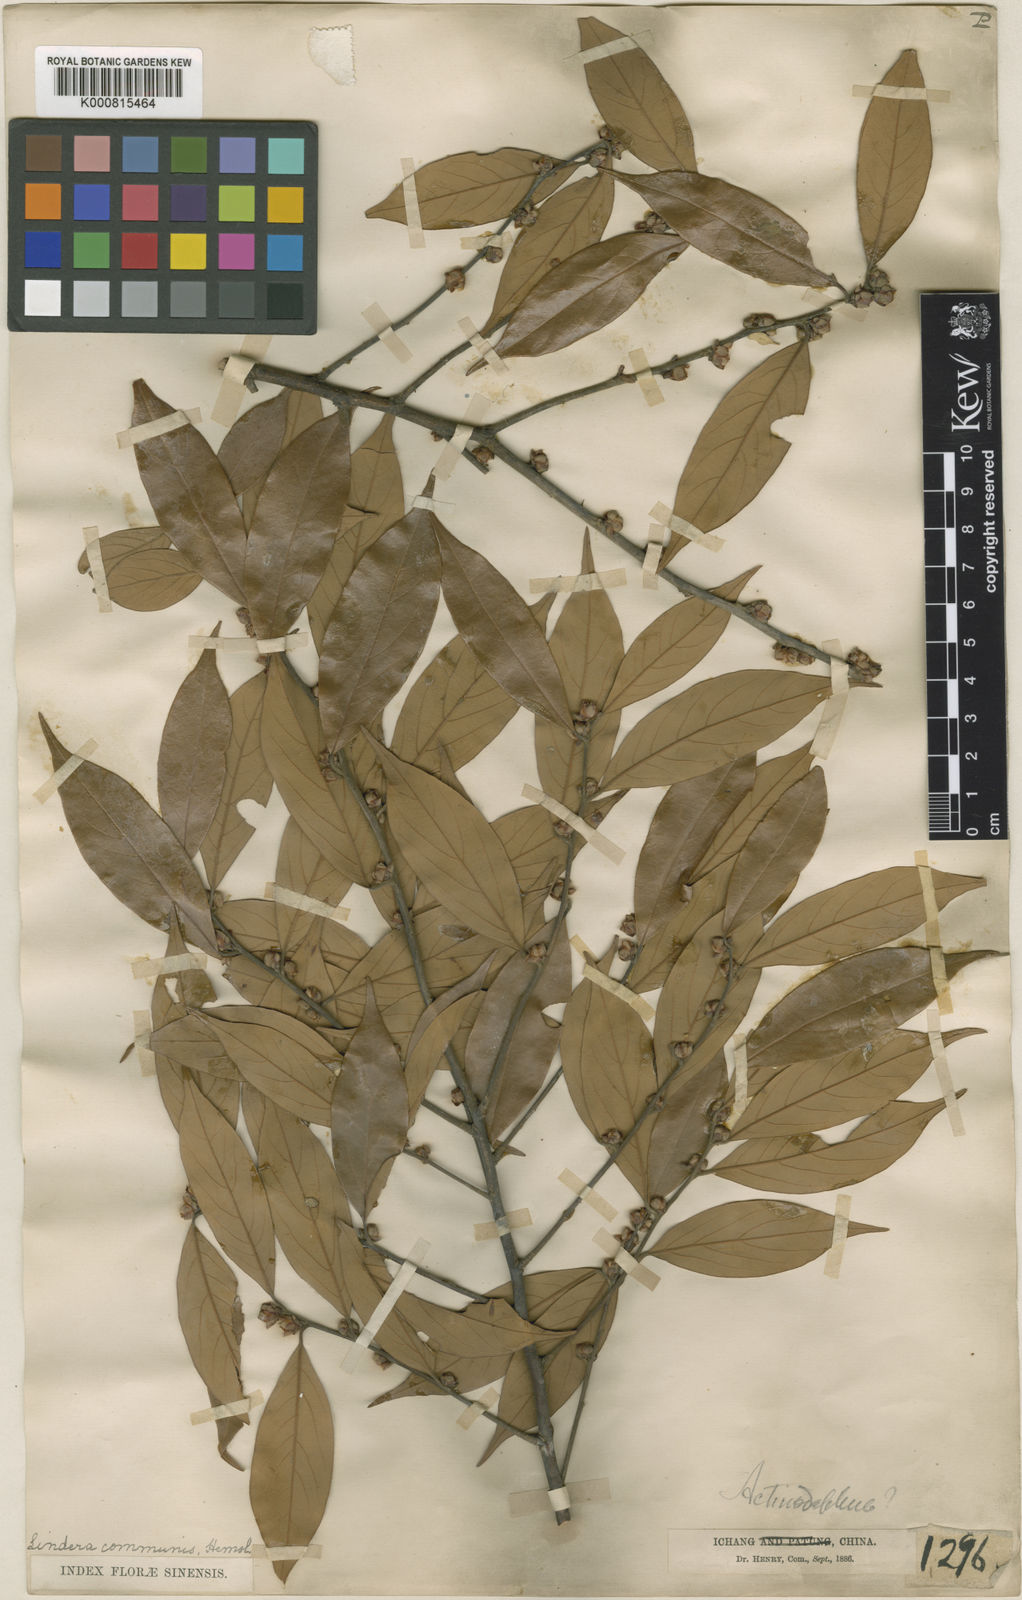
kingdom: Plantae
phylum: Tracheophyta
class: Magnoliopsida
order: Laurales
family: Lauraceae
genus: Lindera
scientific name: Lindera communis
